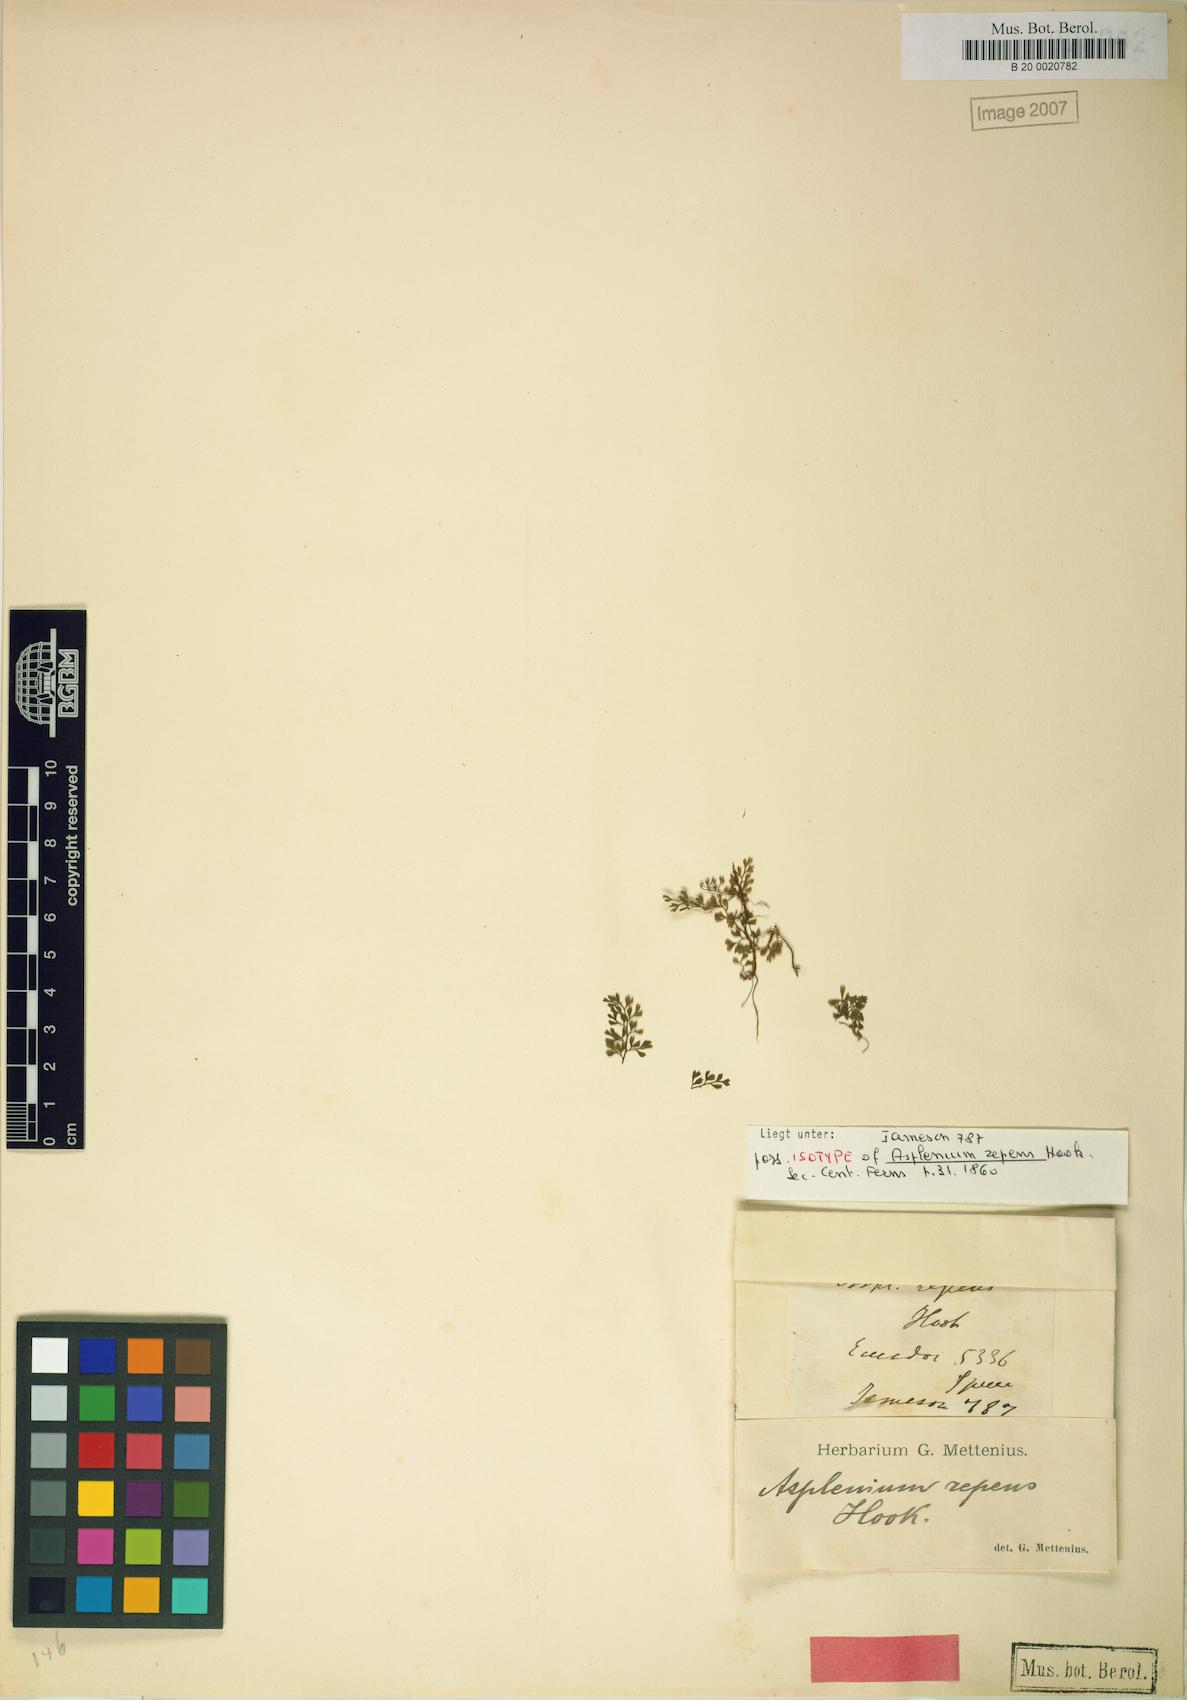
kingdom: Plantae
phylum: Tracheophyta
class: Polypodiopsida
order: Polypodiales
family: Aspleniaceae
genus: Asplenium
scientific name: Asplenium repens
